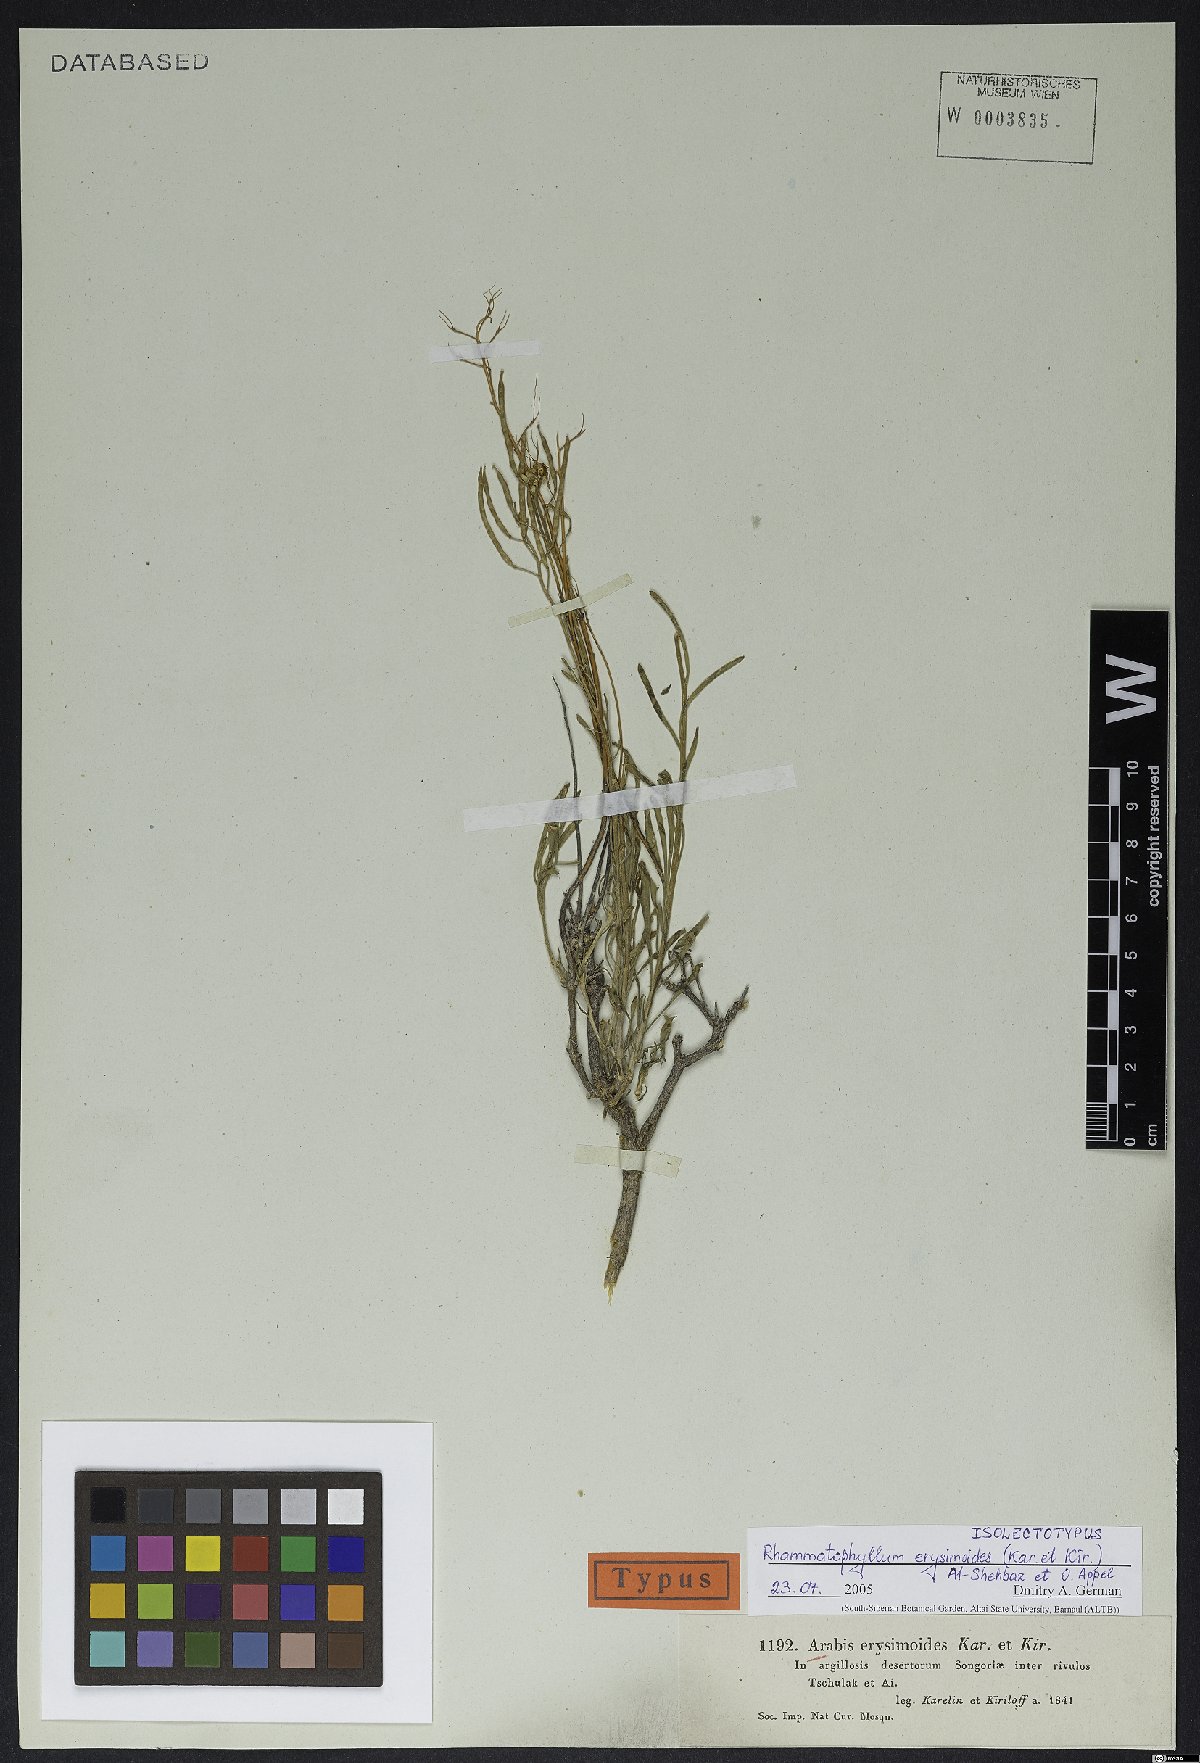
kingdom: Plantae
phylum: Tracheophyta
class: Magnoliopsida
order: Brassicales
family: Brassicaceae
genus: Rhammatophyllum
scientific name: Rhammatophyllum erysimoides
